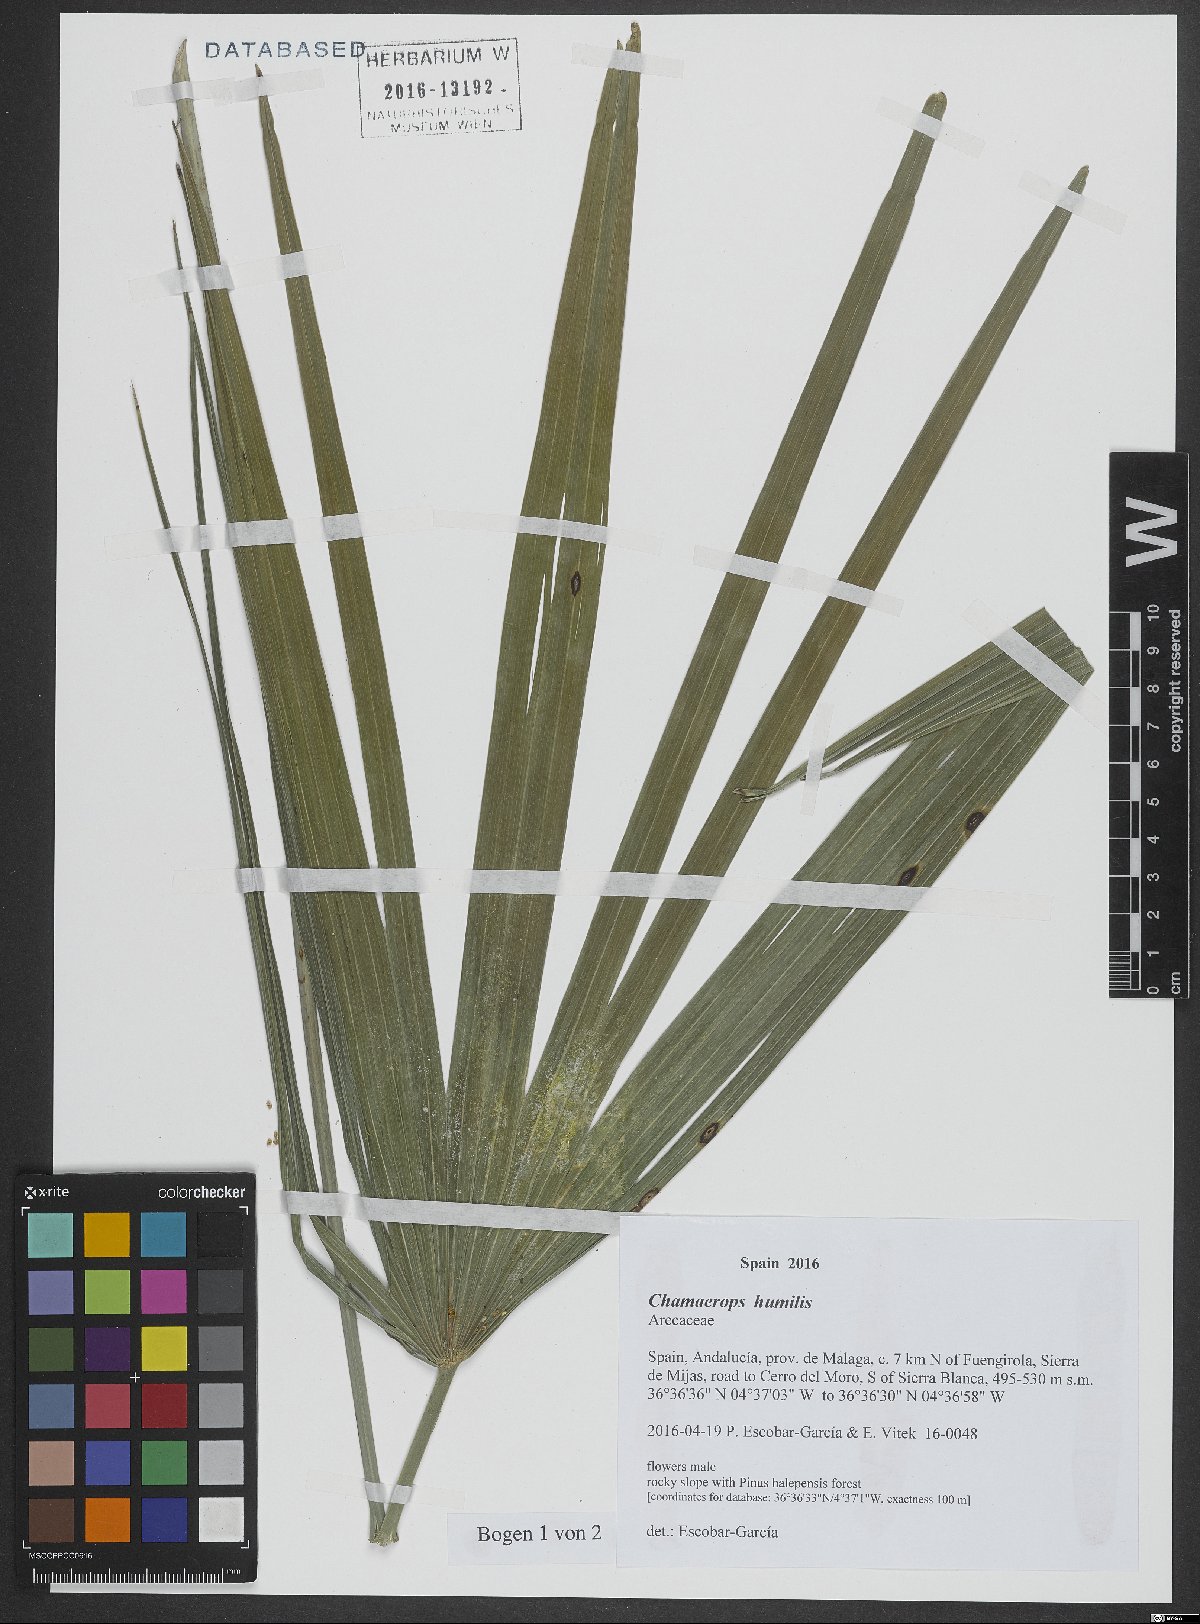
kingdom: Plantae
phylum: Tracheophyta
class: Liliopsida
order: Arecales
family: Arecaceae
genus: Chamaerops
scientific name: Chamaerops humilis
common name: Dwarf fan palm
